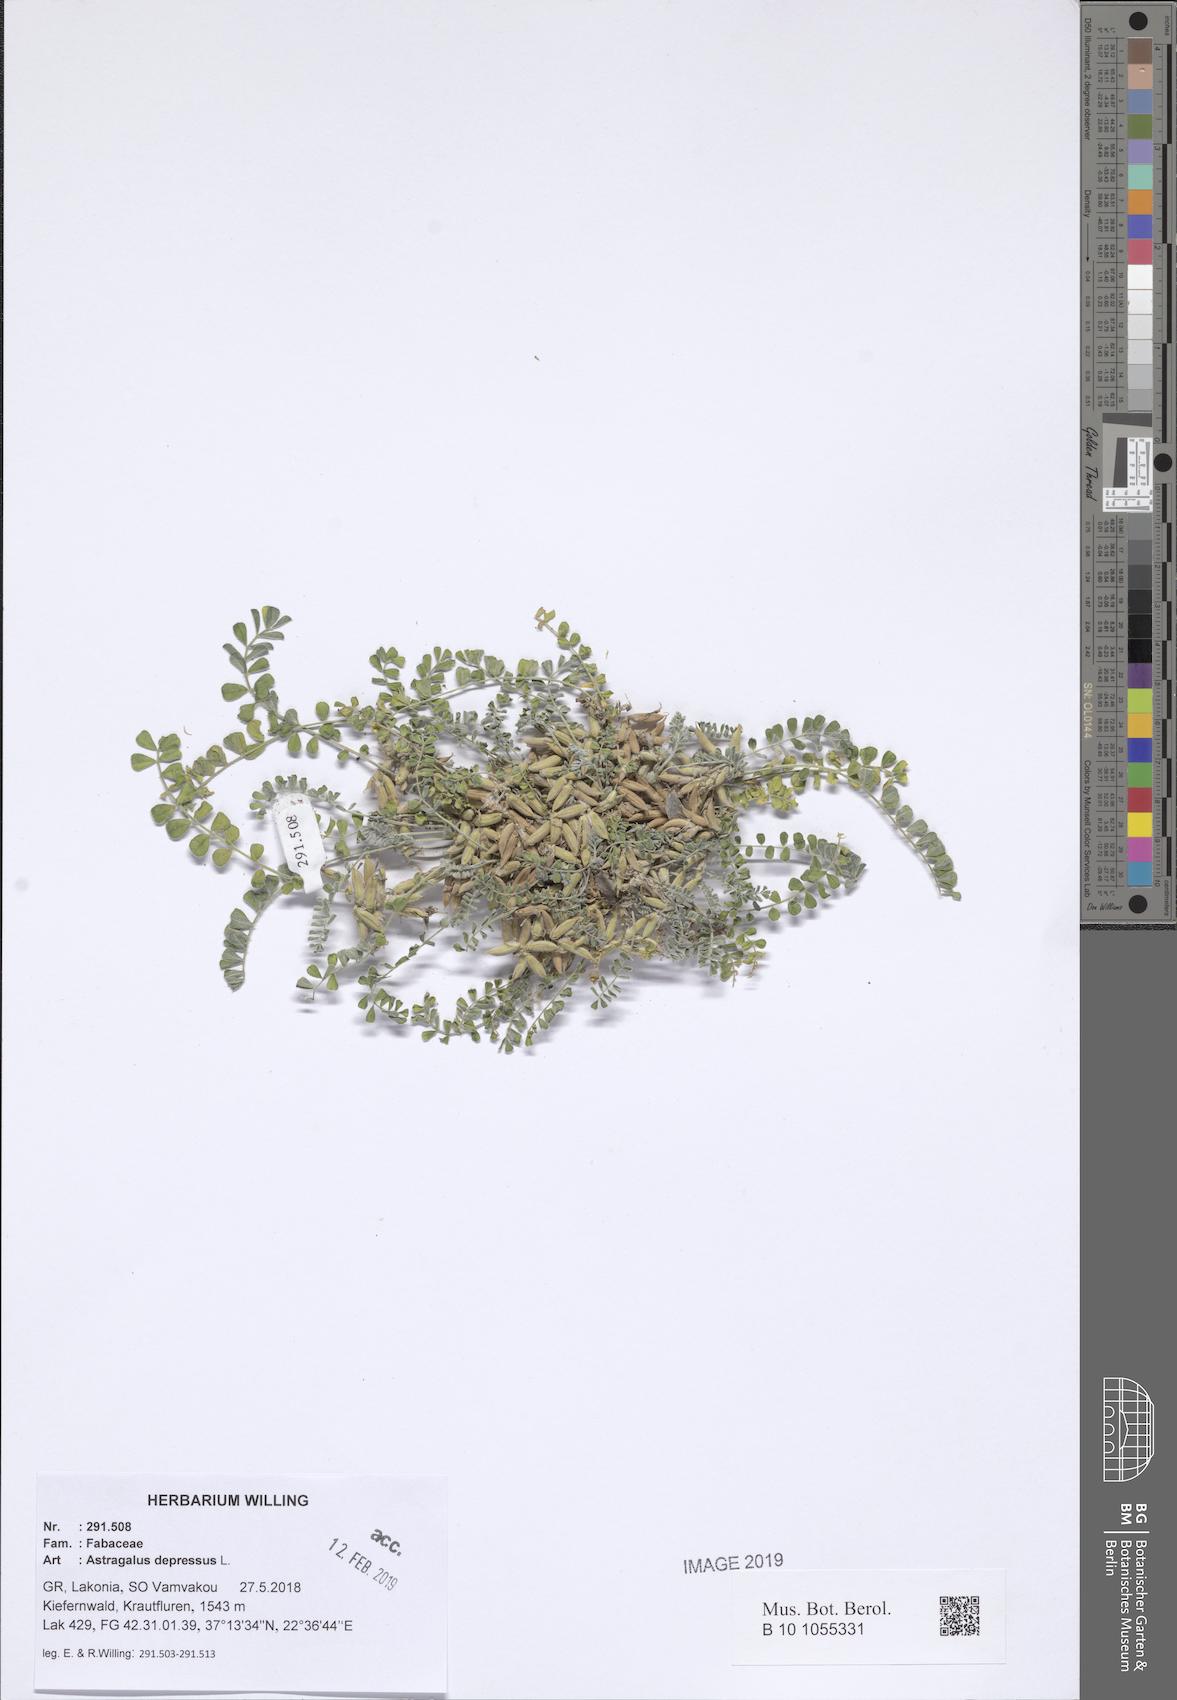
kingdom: Plantae
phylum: Tracheophyta
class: Magnoliopsida
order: Fabales
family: Fabaceae
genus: Astragalus
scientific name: Astragalus depressus
